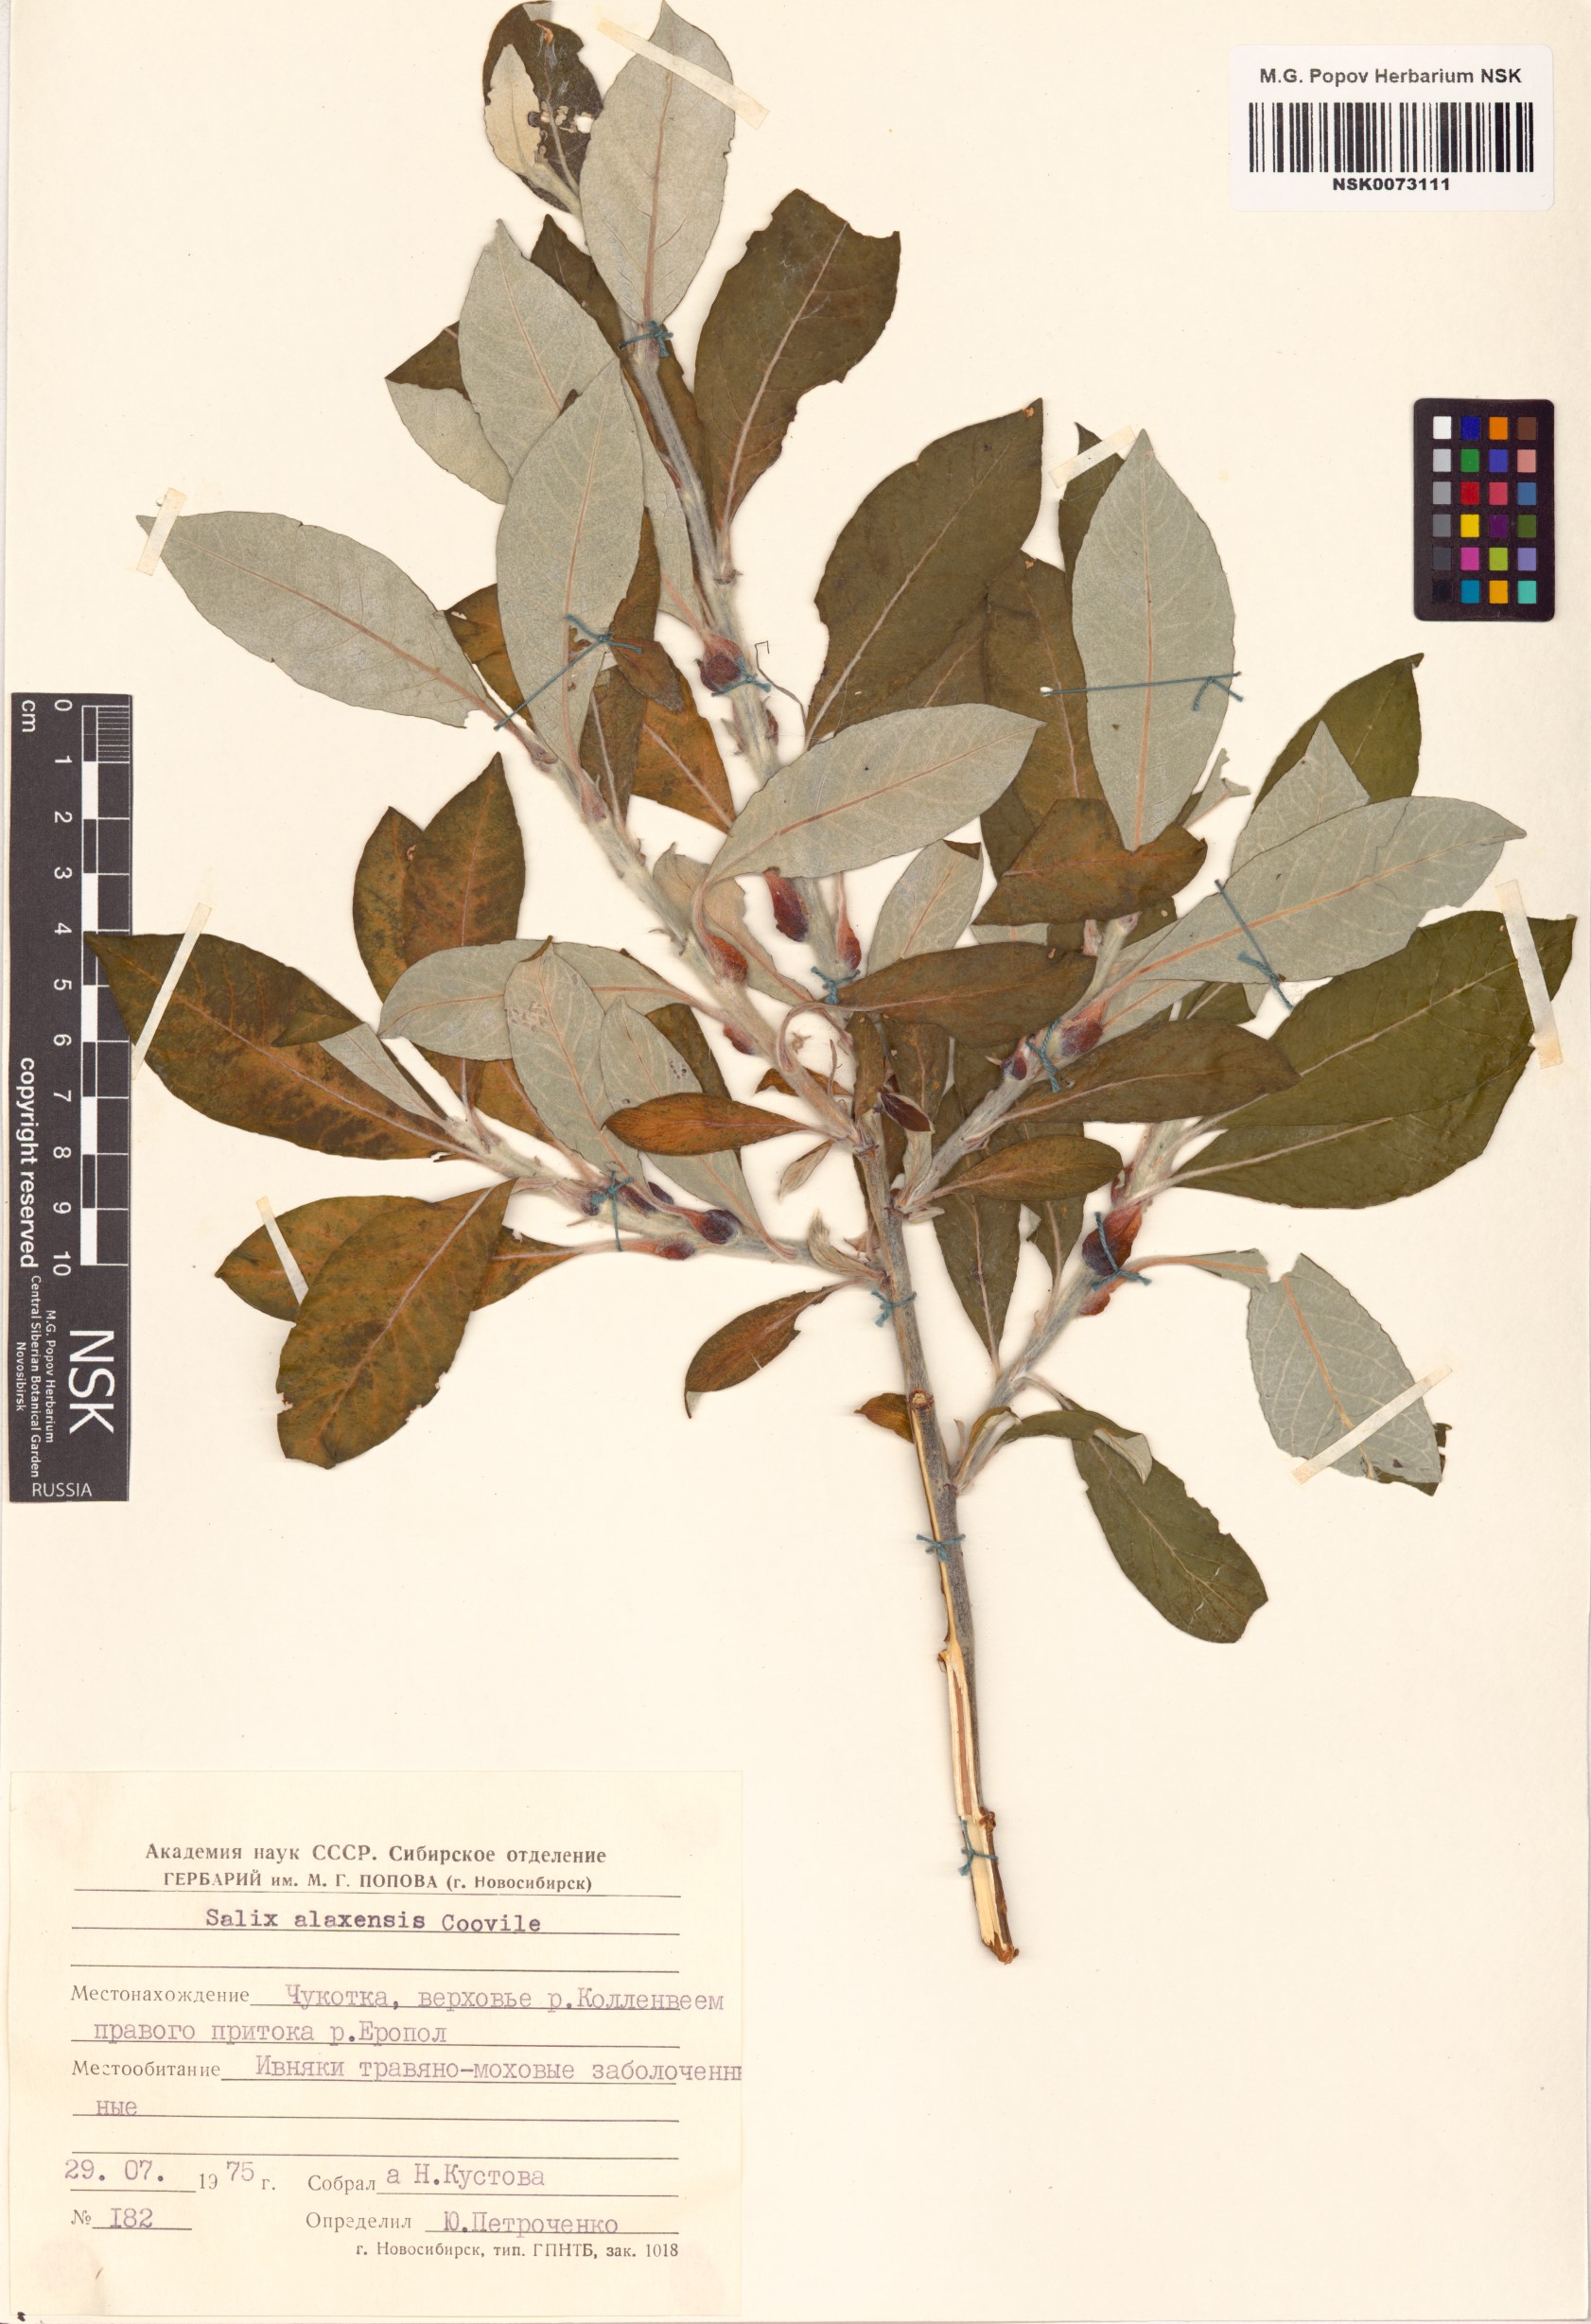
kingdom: Plantae
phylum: Tracheophyta
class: Magnoliopsida
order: Malpighiales
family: Salicaceae
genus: Salix
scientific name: Salix alaxensis
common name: Feltleaf willow
